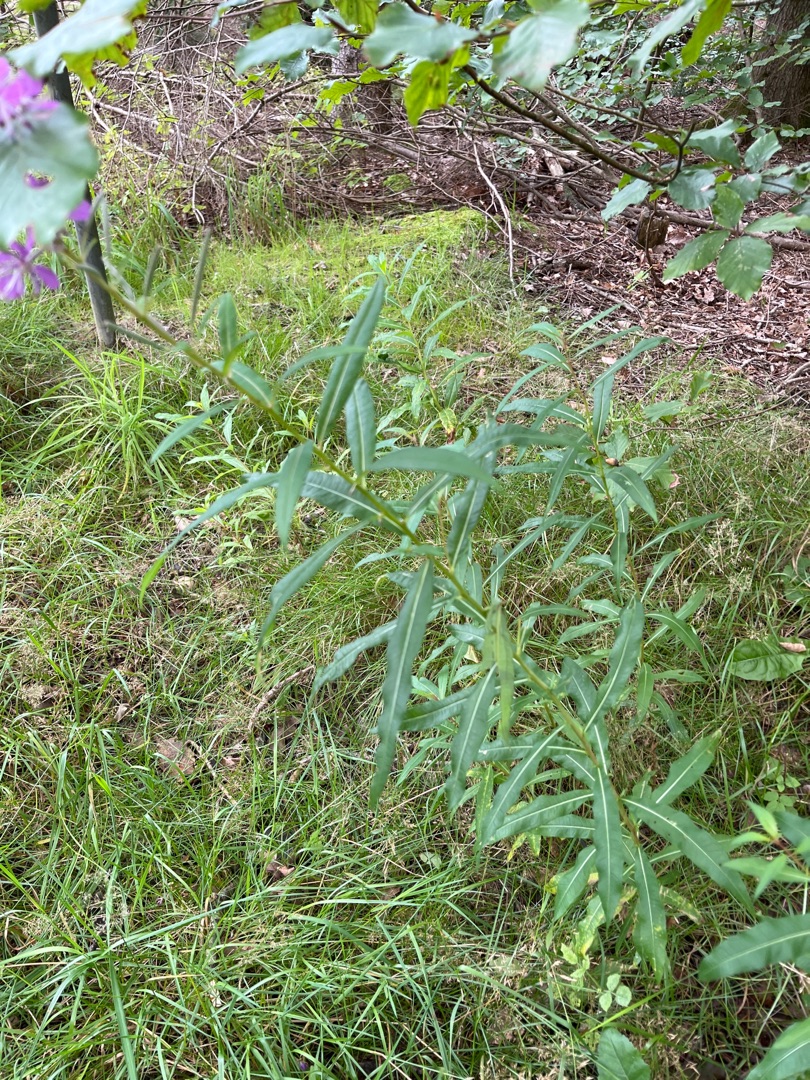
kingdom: Plantae
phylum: Tracheophyta
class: Magnoliopsida
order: Myrtales
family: Onagraceae
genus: Chamaenerion
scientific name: Chamaenerion angustifolium
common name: Gederams
